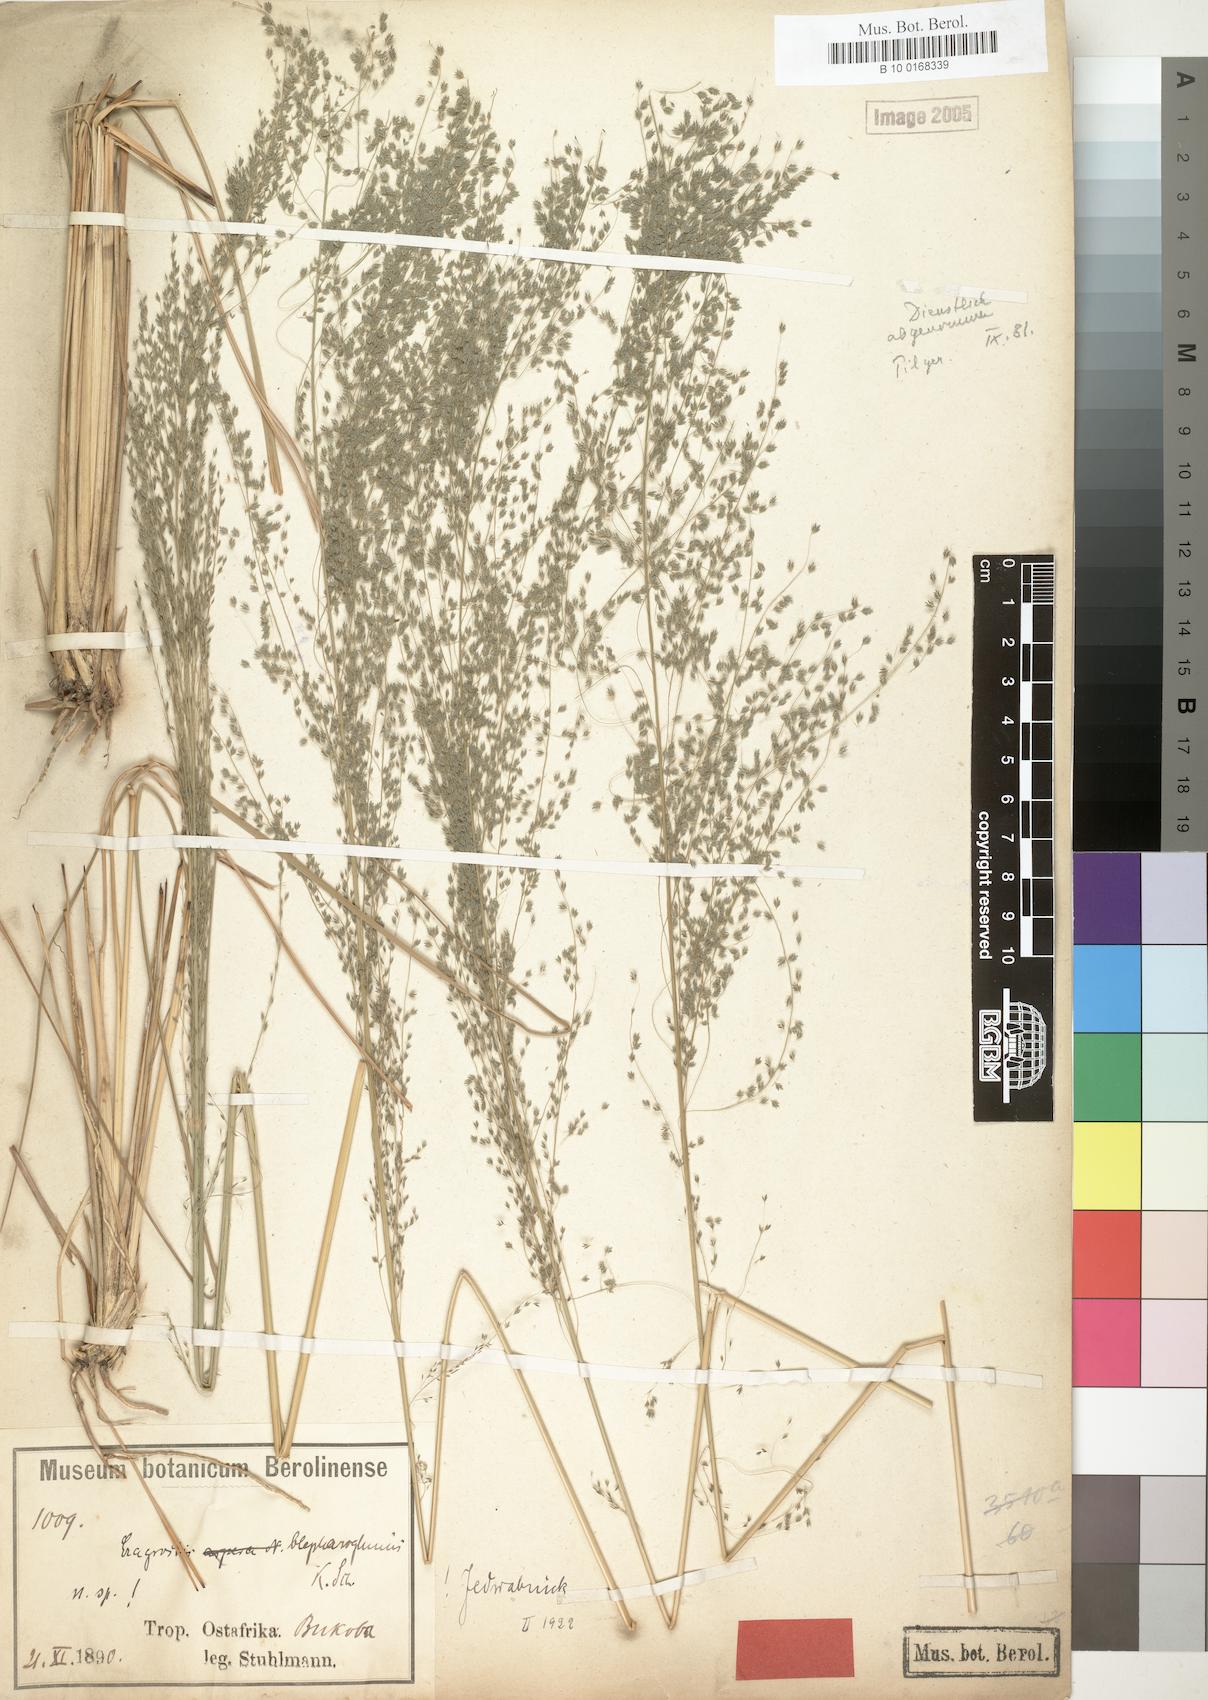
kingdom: Plantae
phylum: Tracheophyta
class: Liliopsida
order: Poales
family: Poaceae
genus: Eragrostis
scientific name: Eragrostis olivacea
